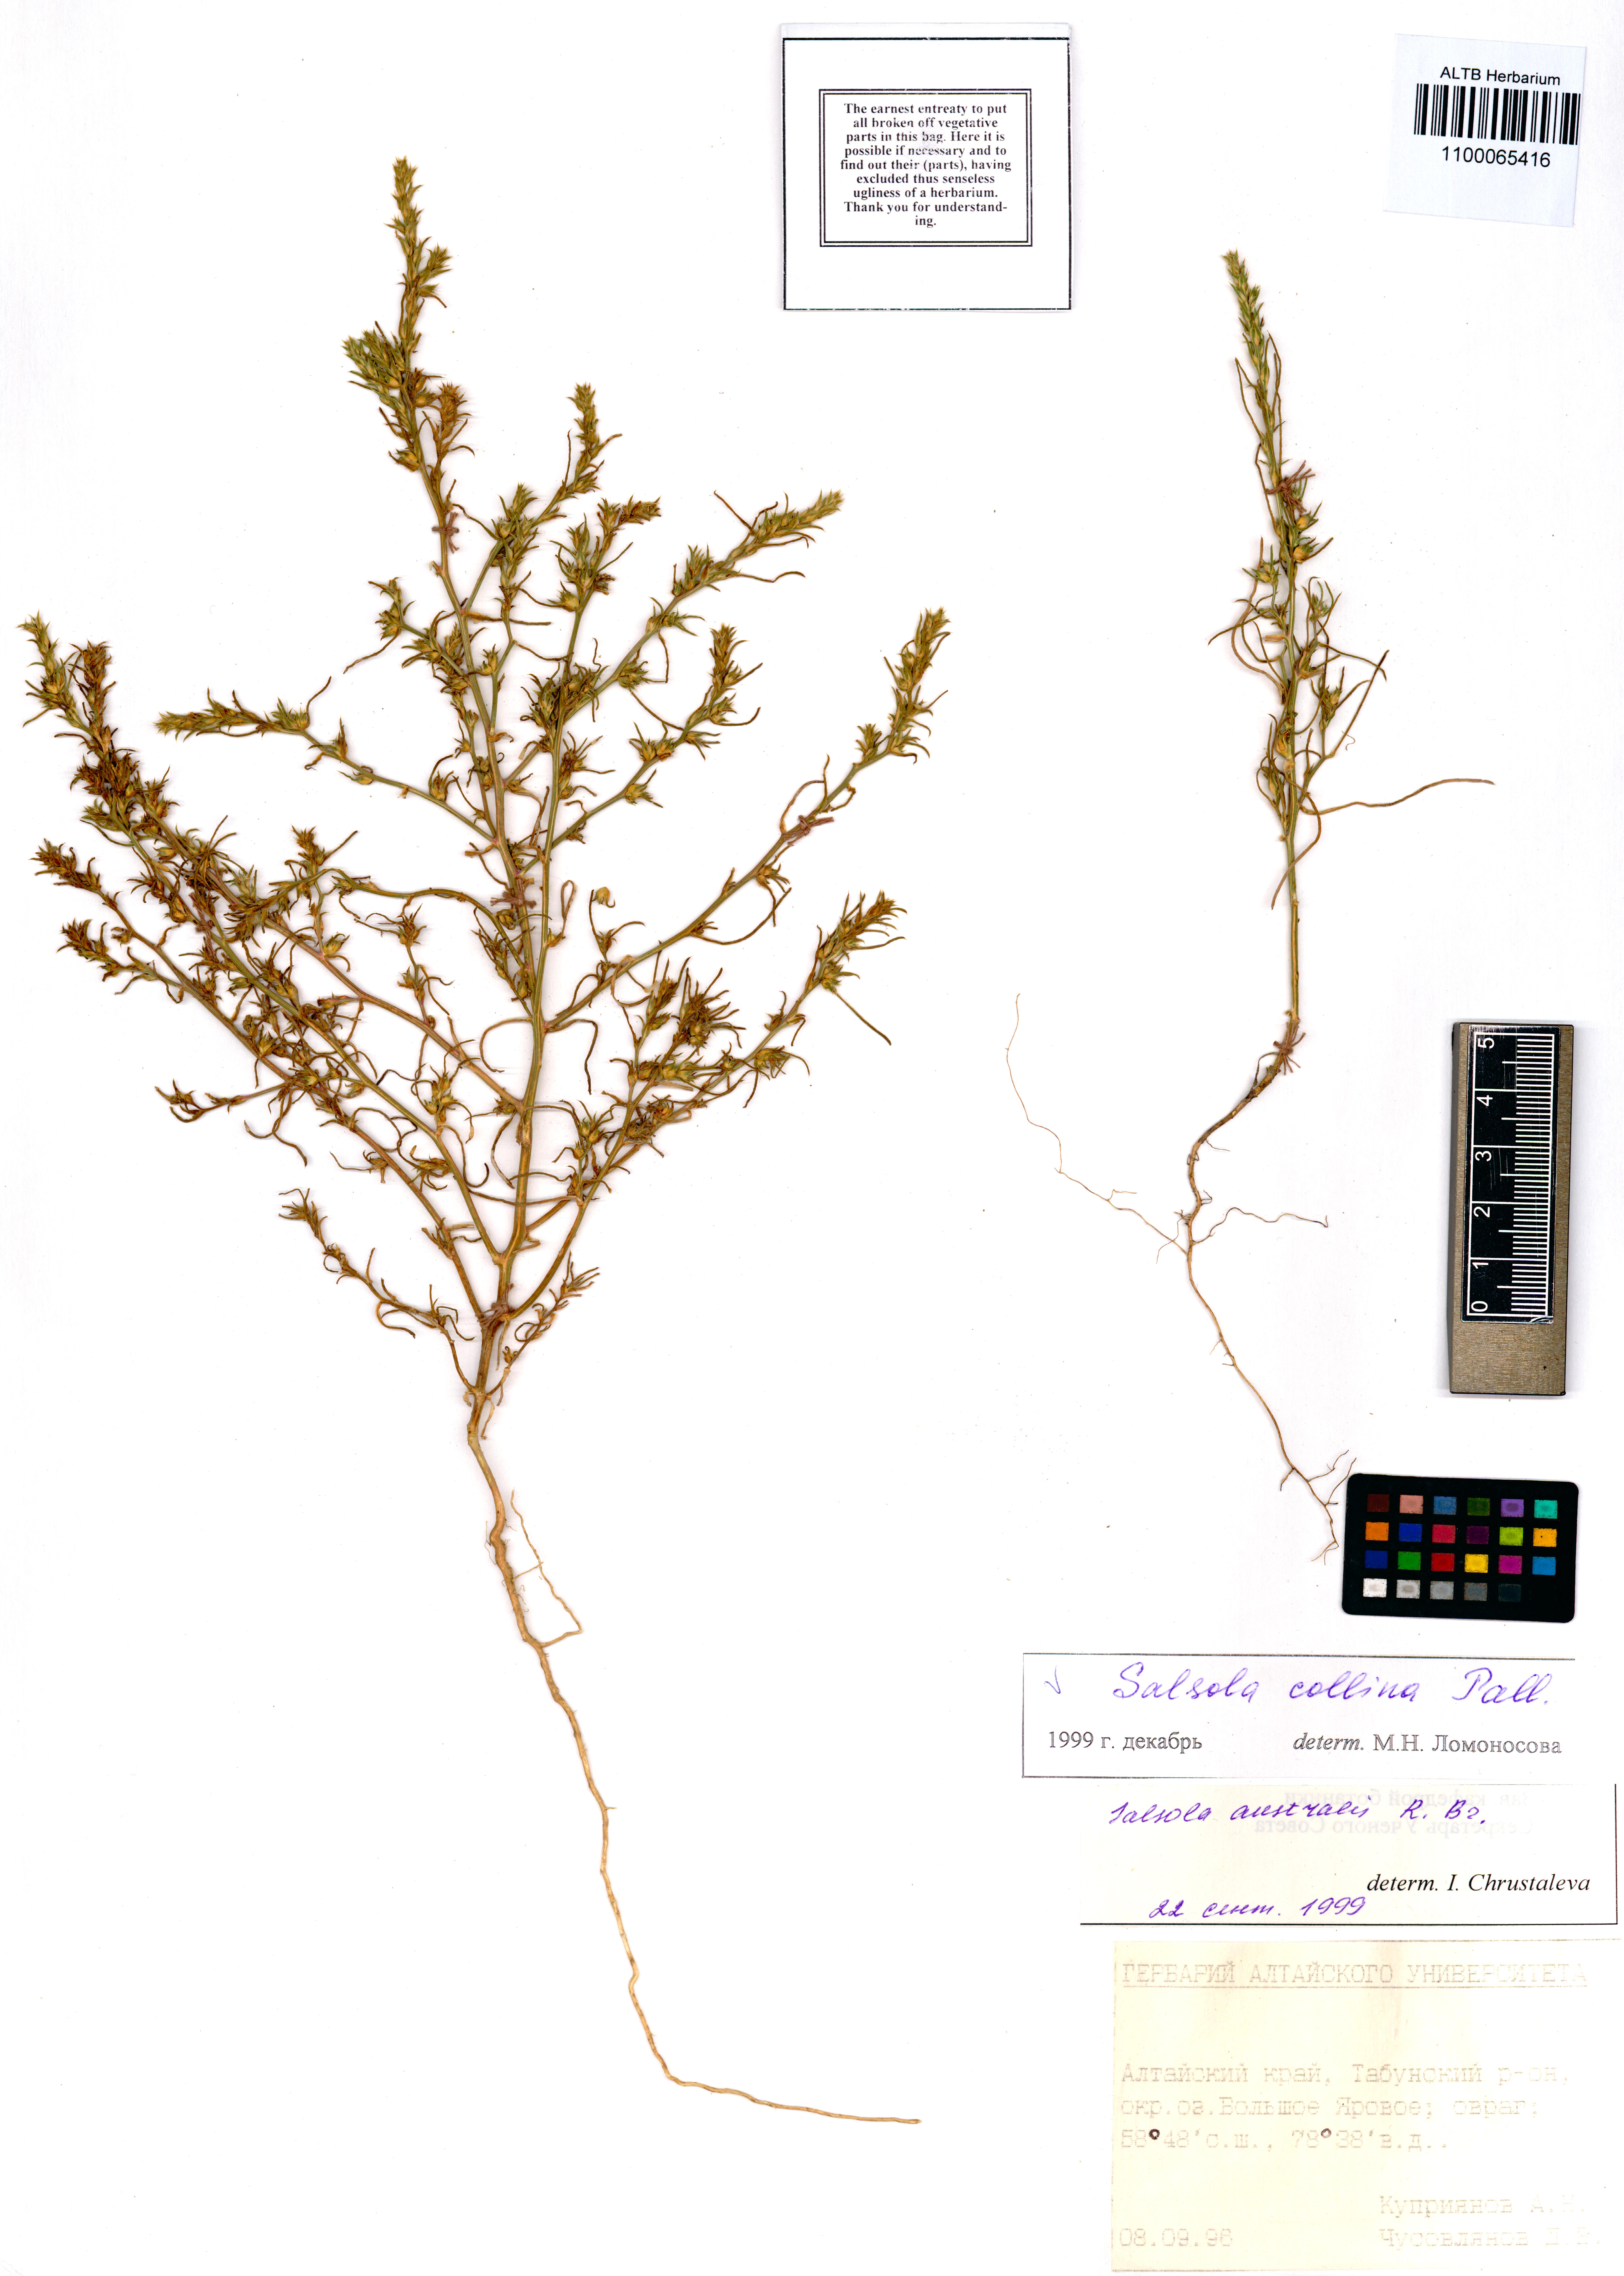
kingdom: Plantae
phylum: Tracheophyta
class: Magnoliopsida
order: Caryophyllales
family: Amaranthaceae
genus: Salsola
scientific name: Salsola collina
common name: Tumbleweed
